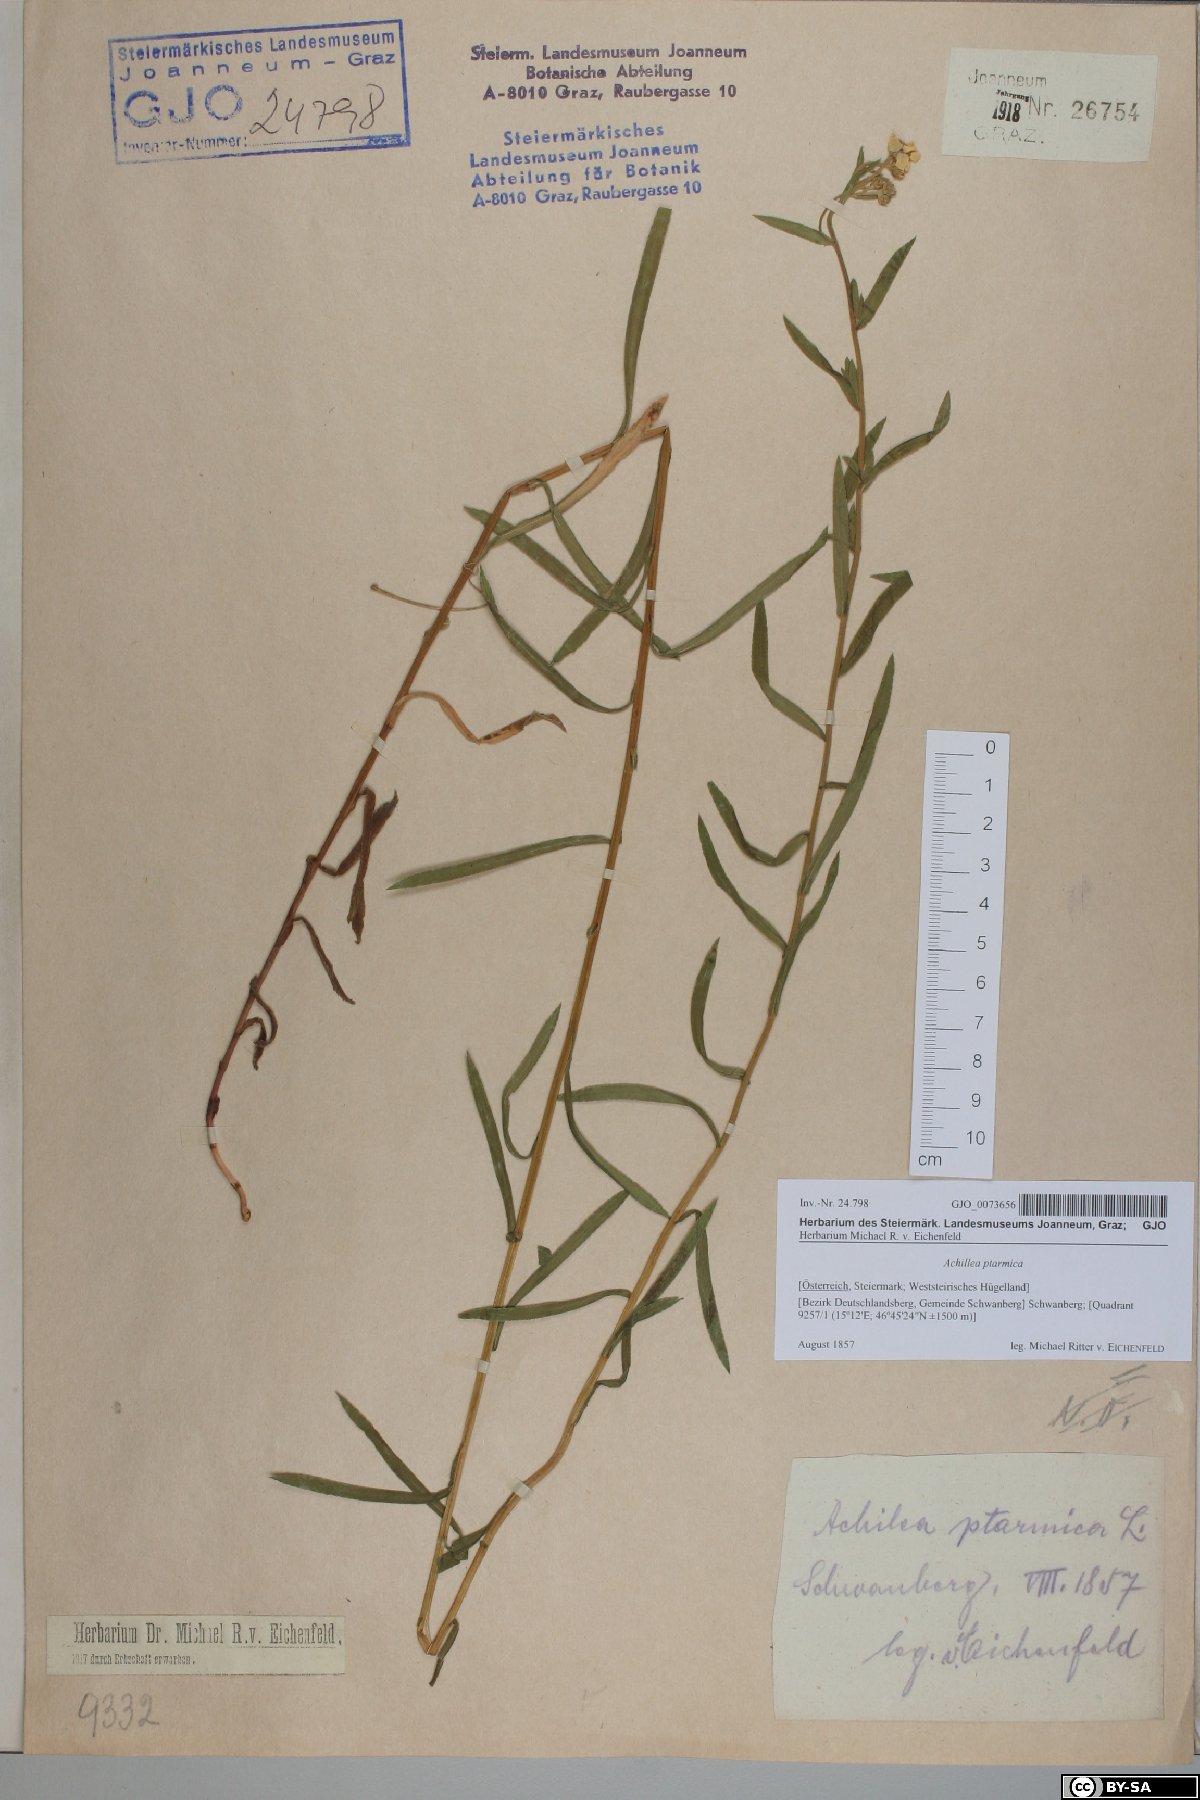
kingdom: Plantae
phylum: Tracheophyta
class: Magnoliopsida
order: Asterales
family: Asteraceae
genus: Achillea
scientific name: Achillea ptarmica
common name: Sneezeweed
